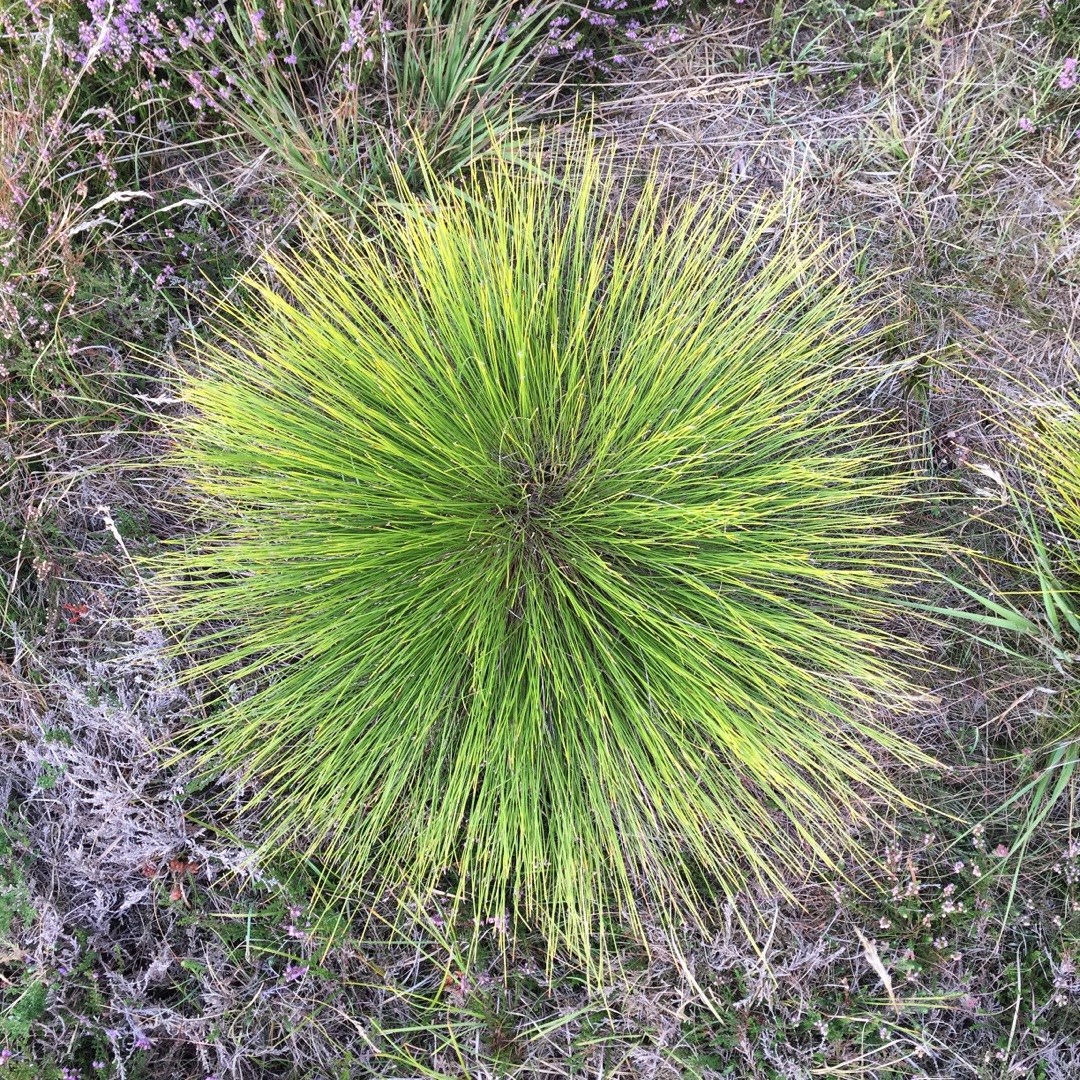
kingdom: Plantae
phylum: Tracheophyta
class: Liliopsida
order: Poales
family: Cyperaceae
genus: Trichophorum
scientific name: Trichophorum cespitosum
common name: Tuekogleaks
